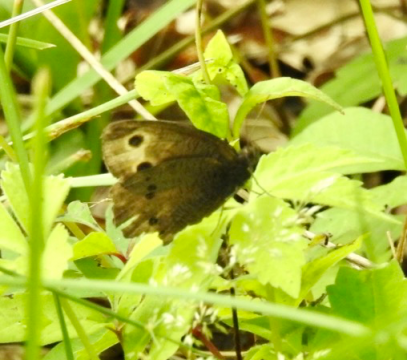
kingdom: Animalia
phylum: Arthropoda
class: Insecta
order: Lepidoptera
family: Nymphalidae
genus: Cercyonis
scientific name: Cercyonis pegala
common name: Common Wood-Nymph
